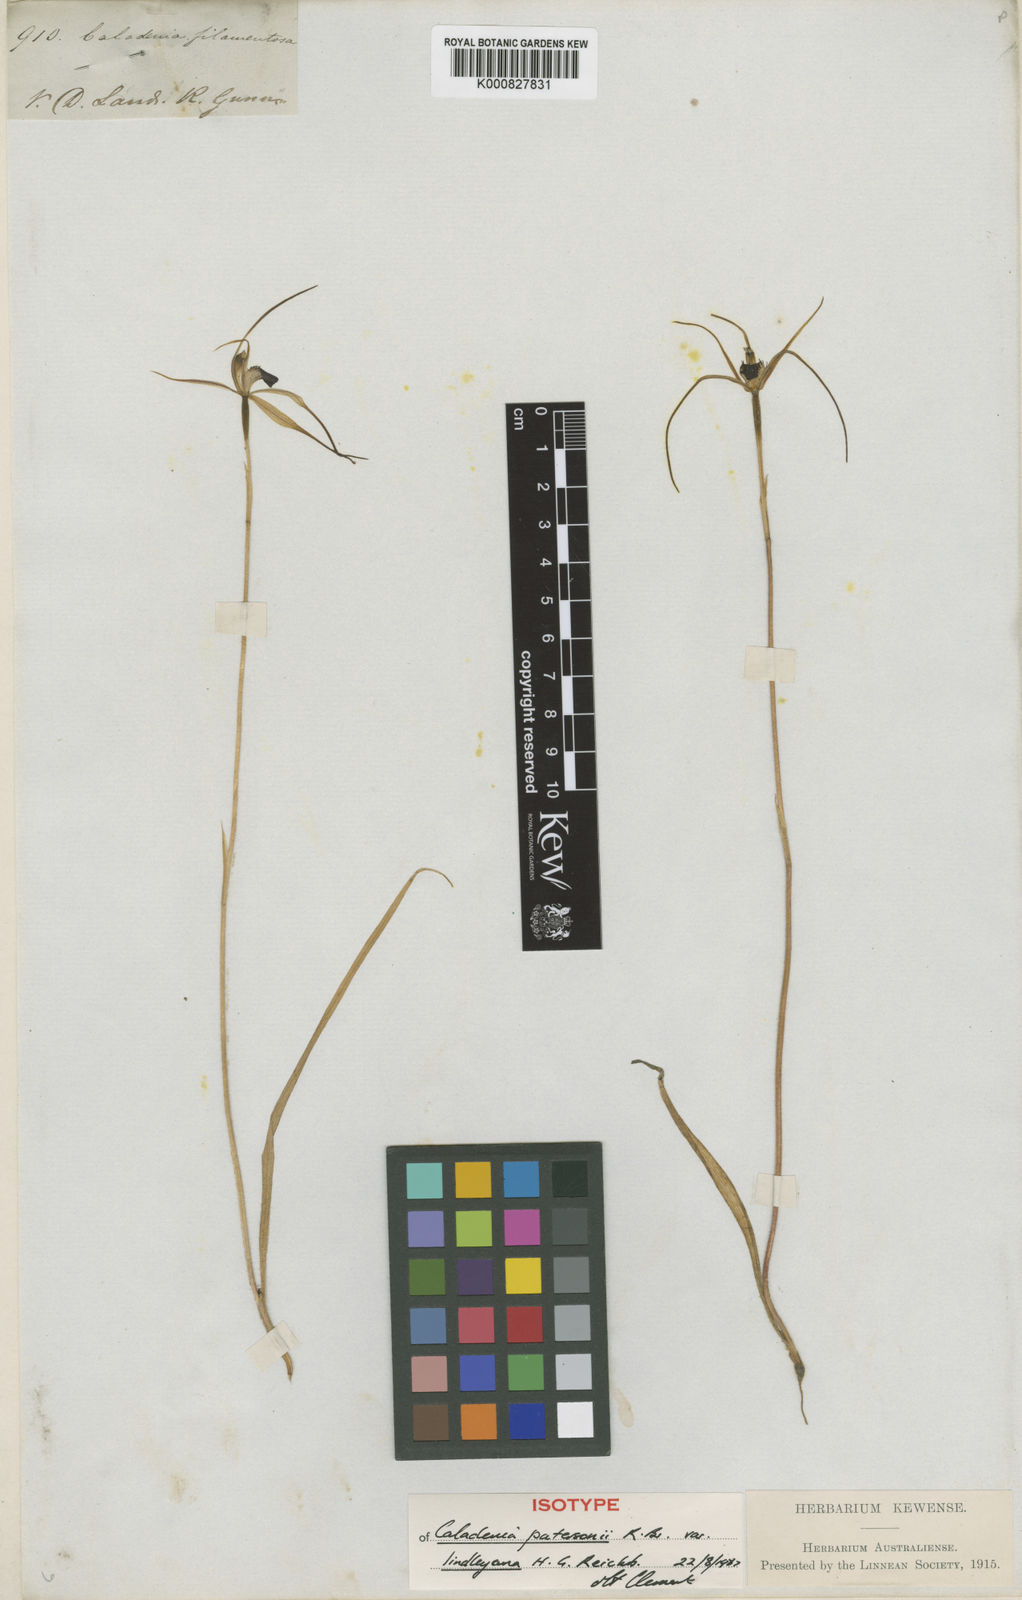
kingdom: Plantae
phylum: Tracheophyta
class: Liliopsida
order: Asparagales
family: Orchidaceae
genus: Caladenia
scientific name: Caladenia lindleyana
